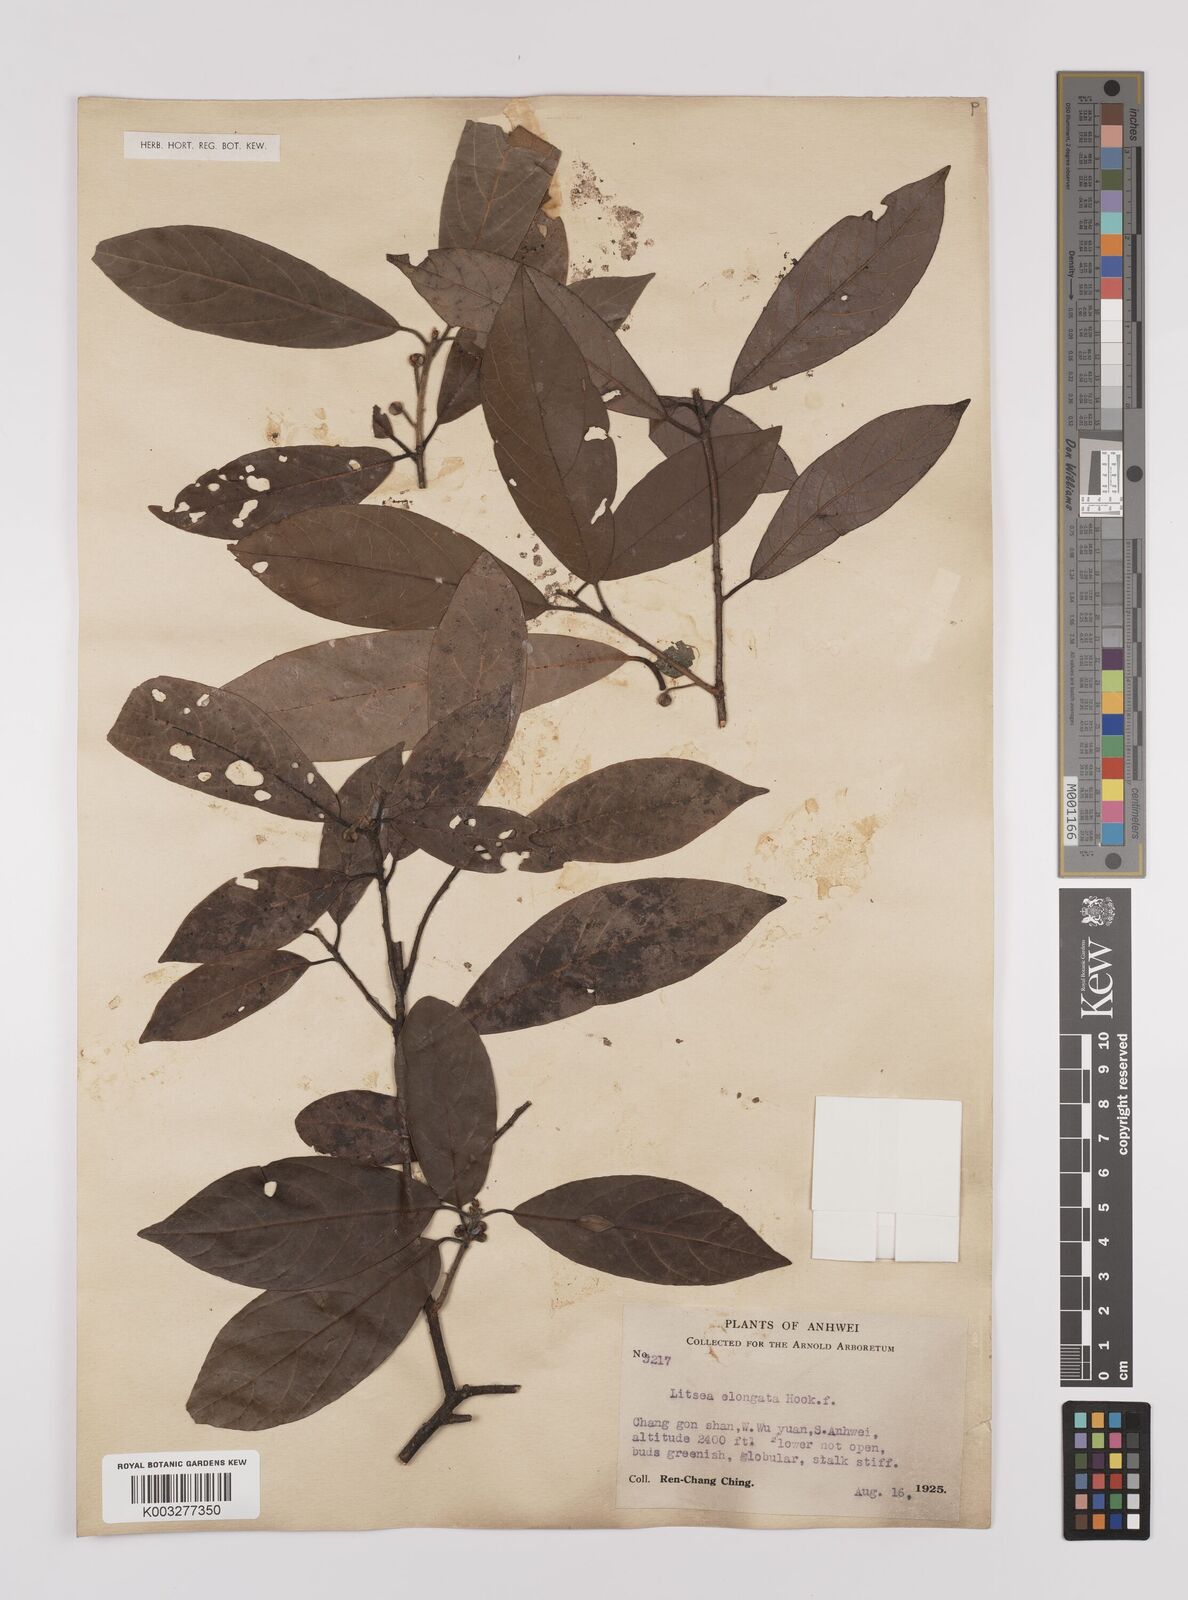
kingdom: Plantae
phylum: Tracheophyta
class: Magnoliopsida
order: Laurales
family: Lauraceae
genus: Litsea
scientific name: Litsea elongata
